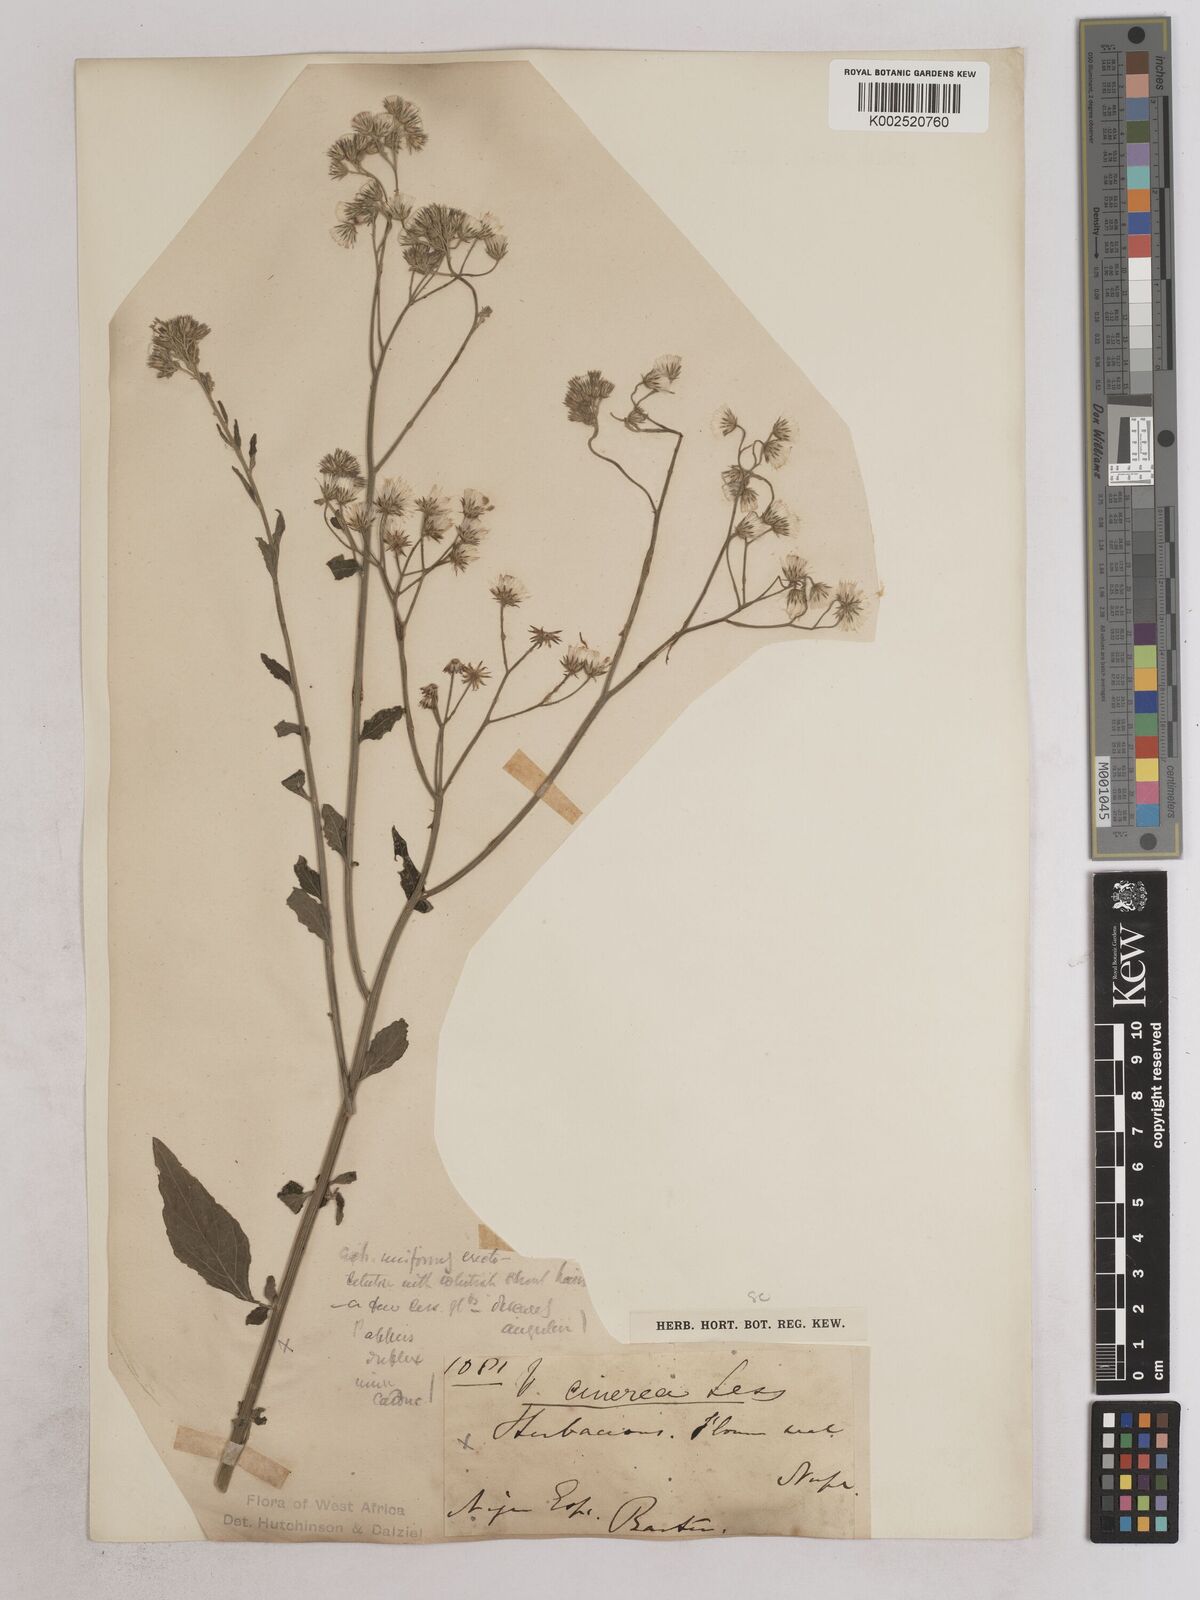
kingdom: Plantae
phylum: Tracheophyta
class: Magnoliopsida
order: Asterales
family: Asteraceae
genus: Cyanthillium
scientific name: Cyanthillium cinereum
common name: Little ironweed
